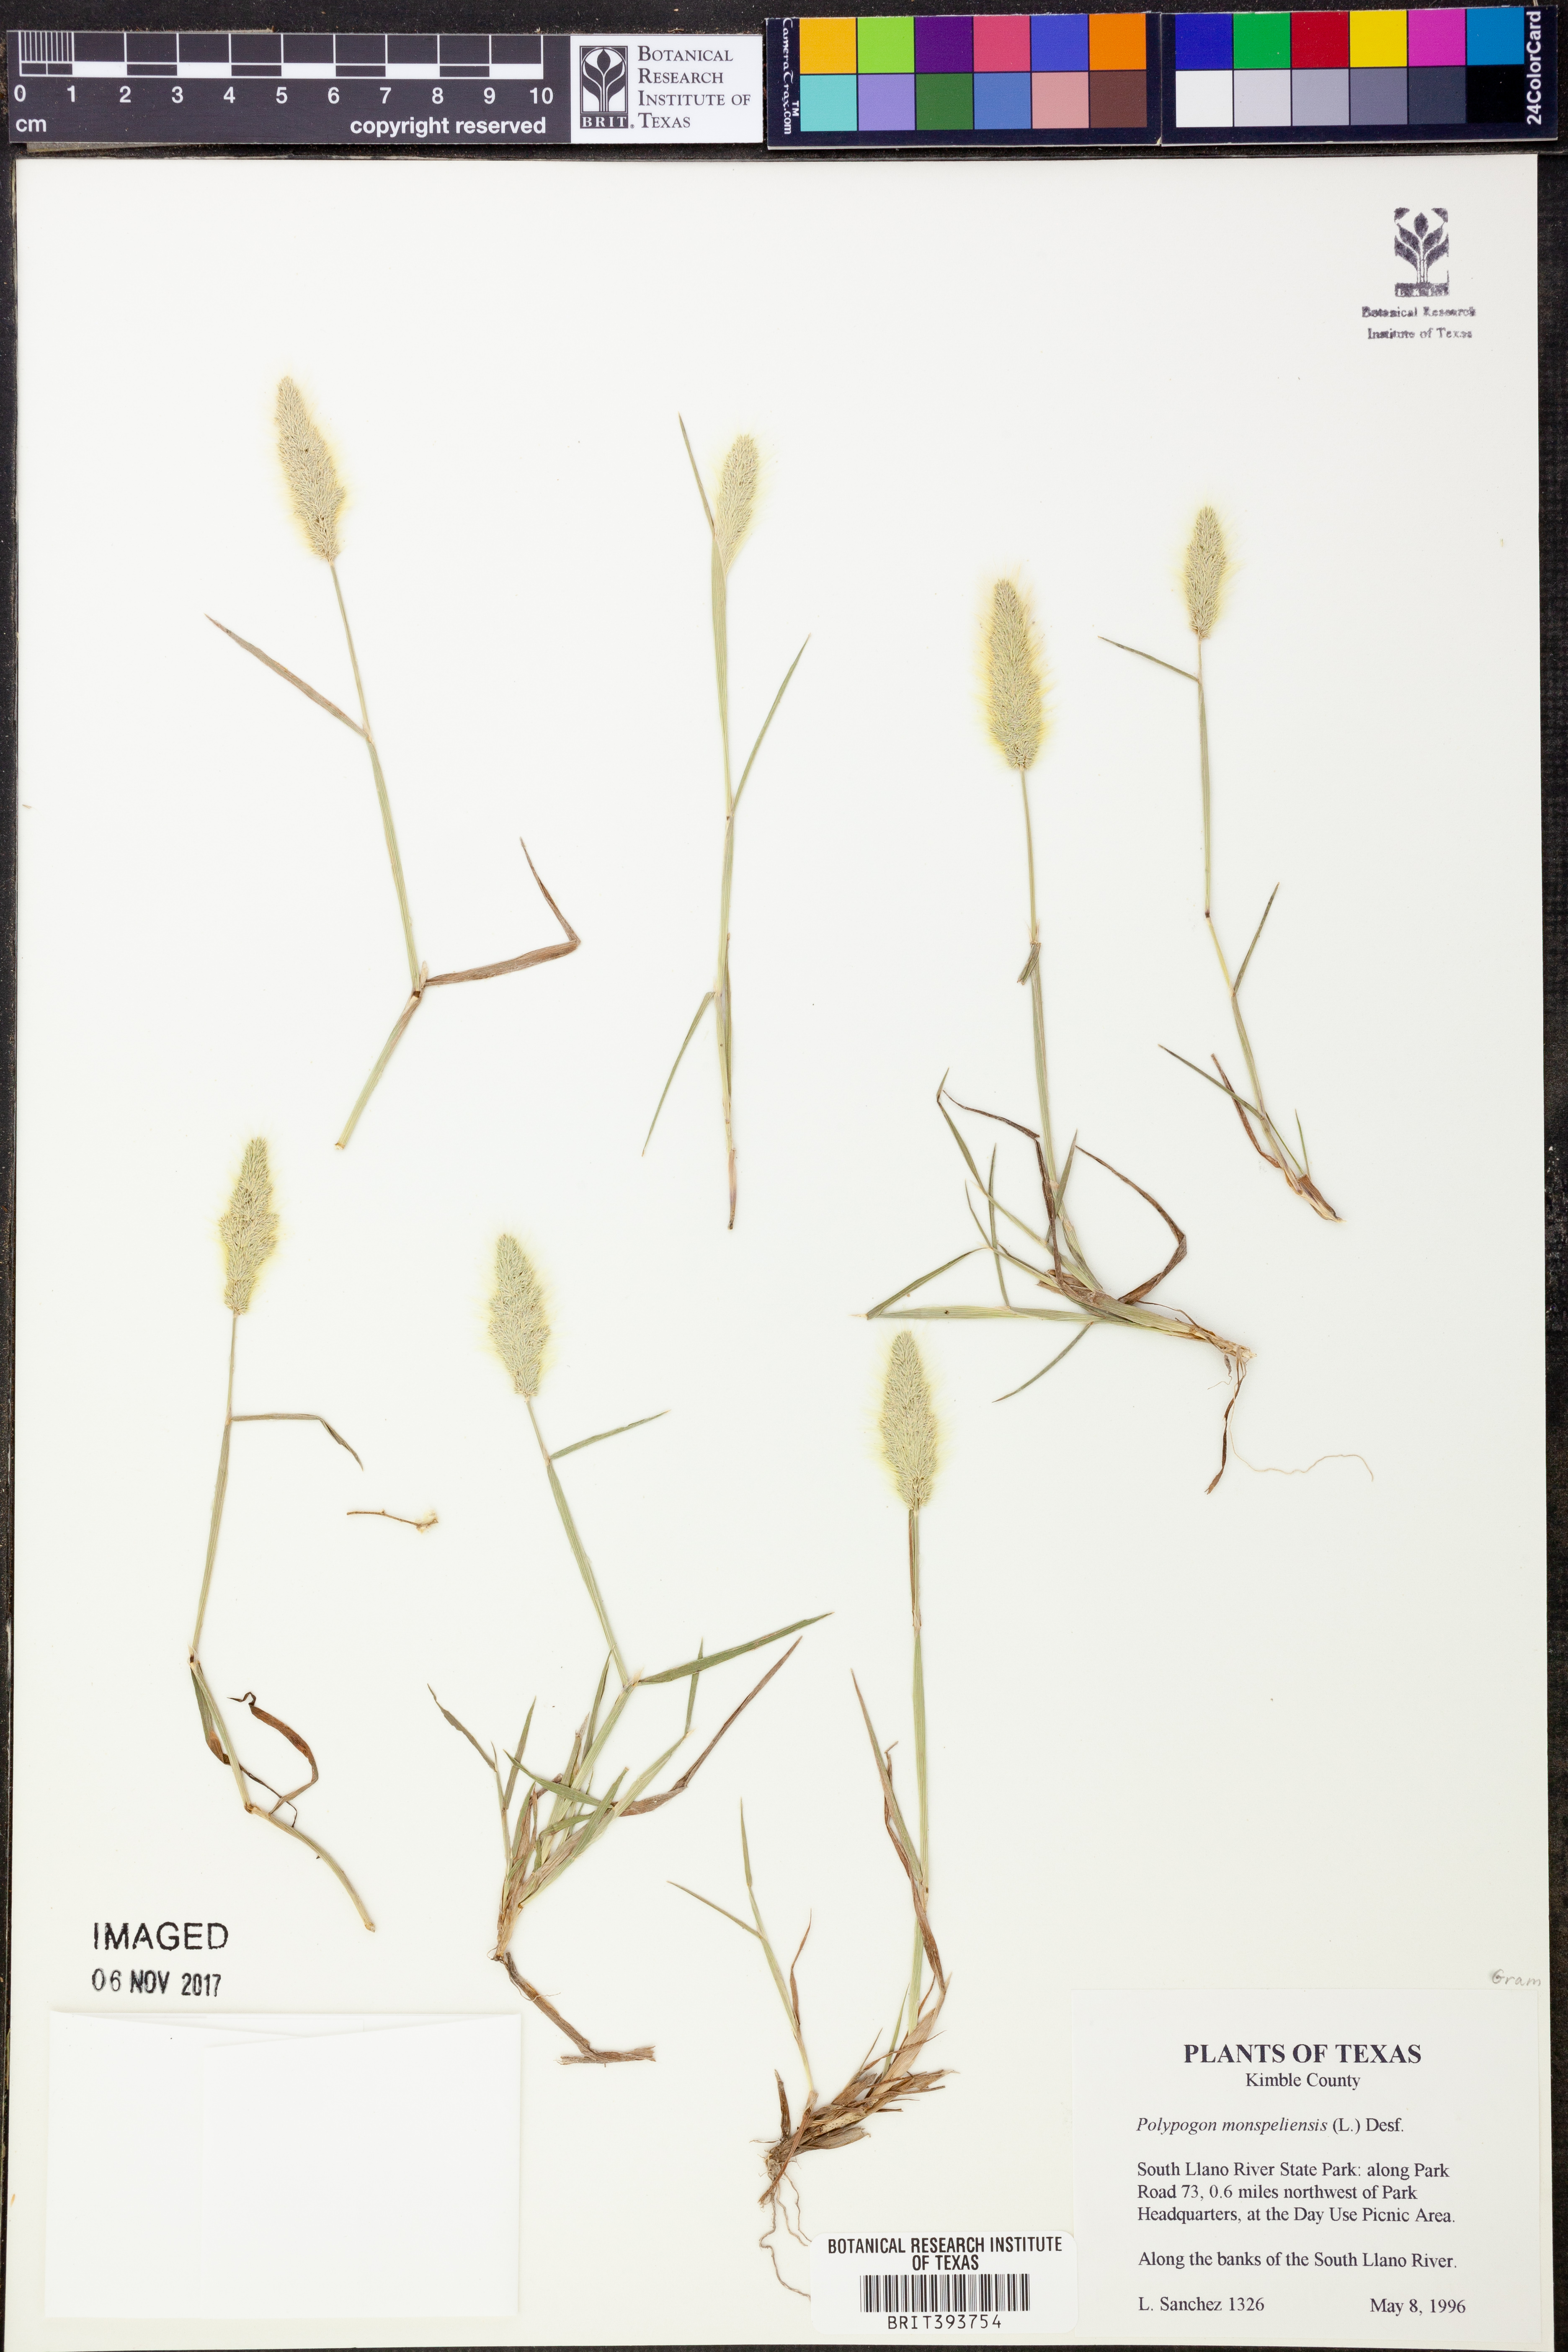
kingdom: Plantae
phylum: Tracheophyta
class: Liliopsida
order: Poales
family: Poaceae
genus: Polypogon
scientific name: Polypogon monspeliensis
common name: Annual rabbitsfoot grass
